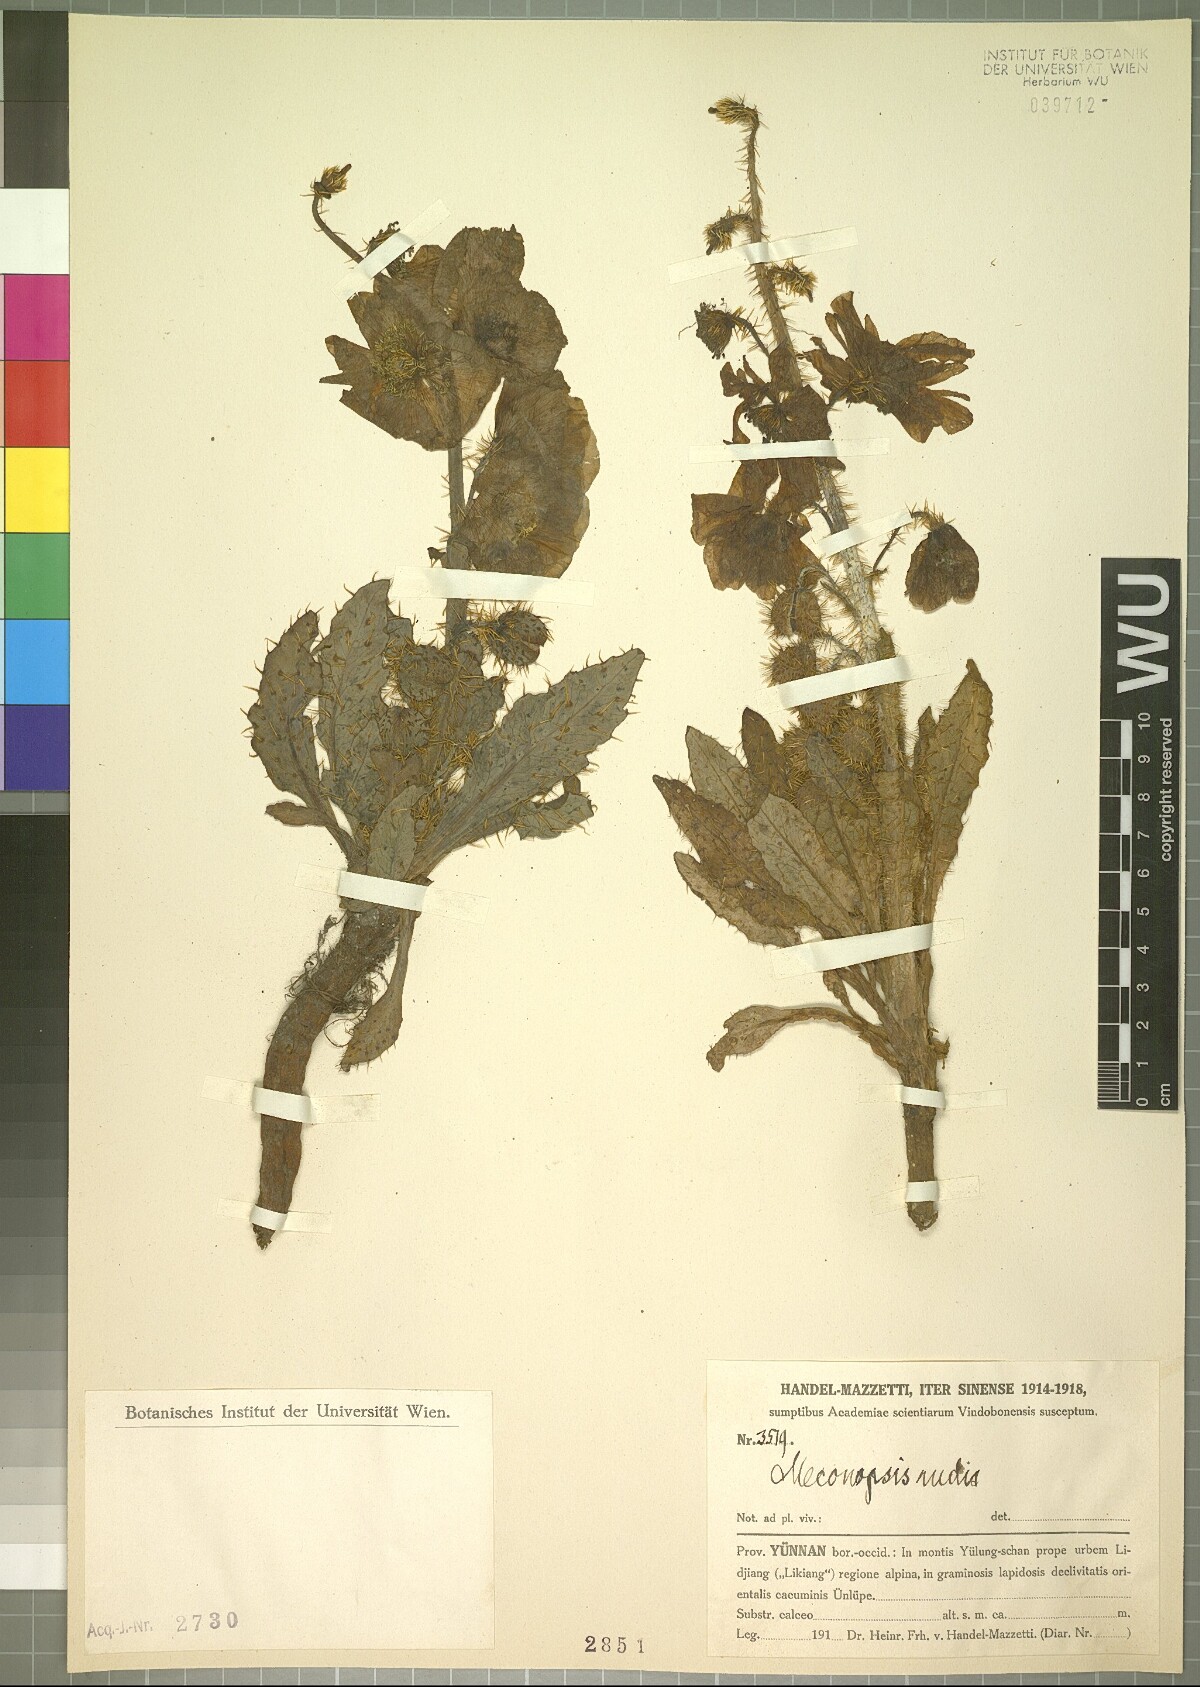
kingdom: Plantae
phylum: Tracheophyta
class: Magnoliopsida
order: Ranunculales
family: Papaveraceae
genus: Meconopsis
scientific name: Meconopsis rudis
